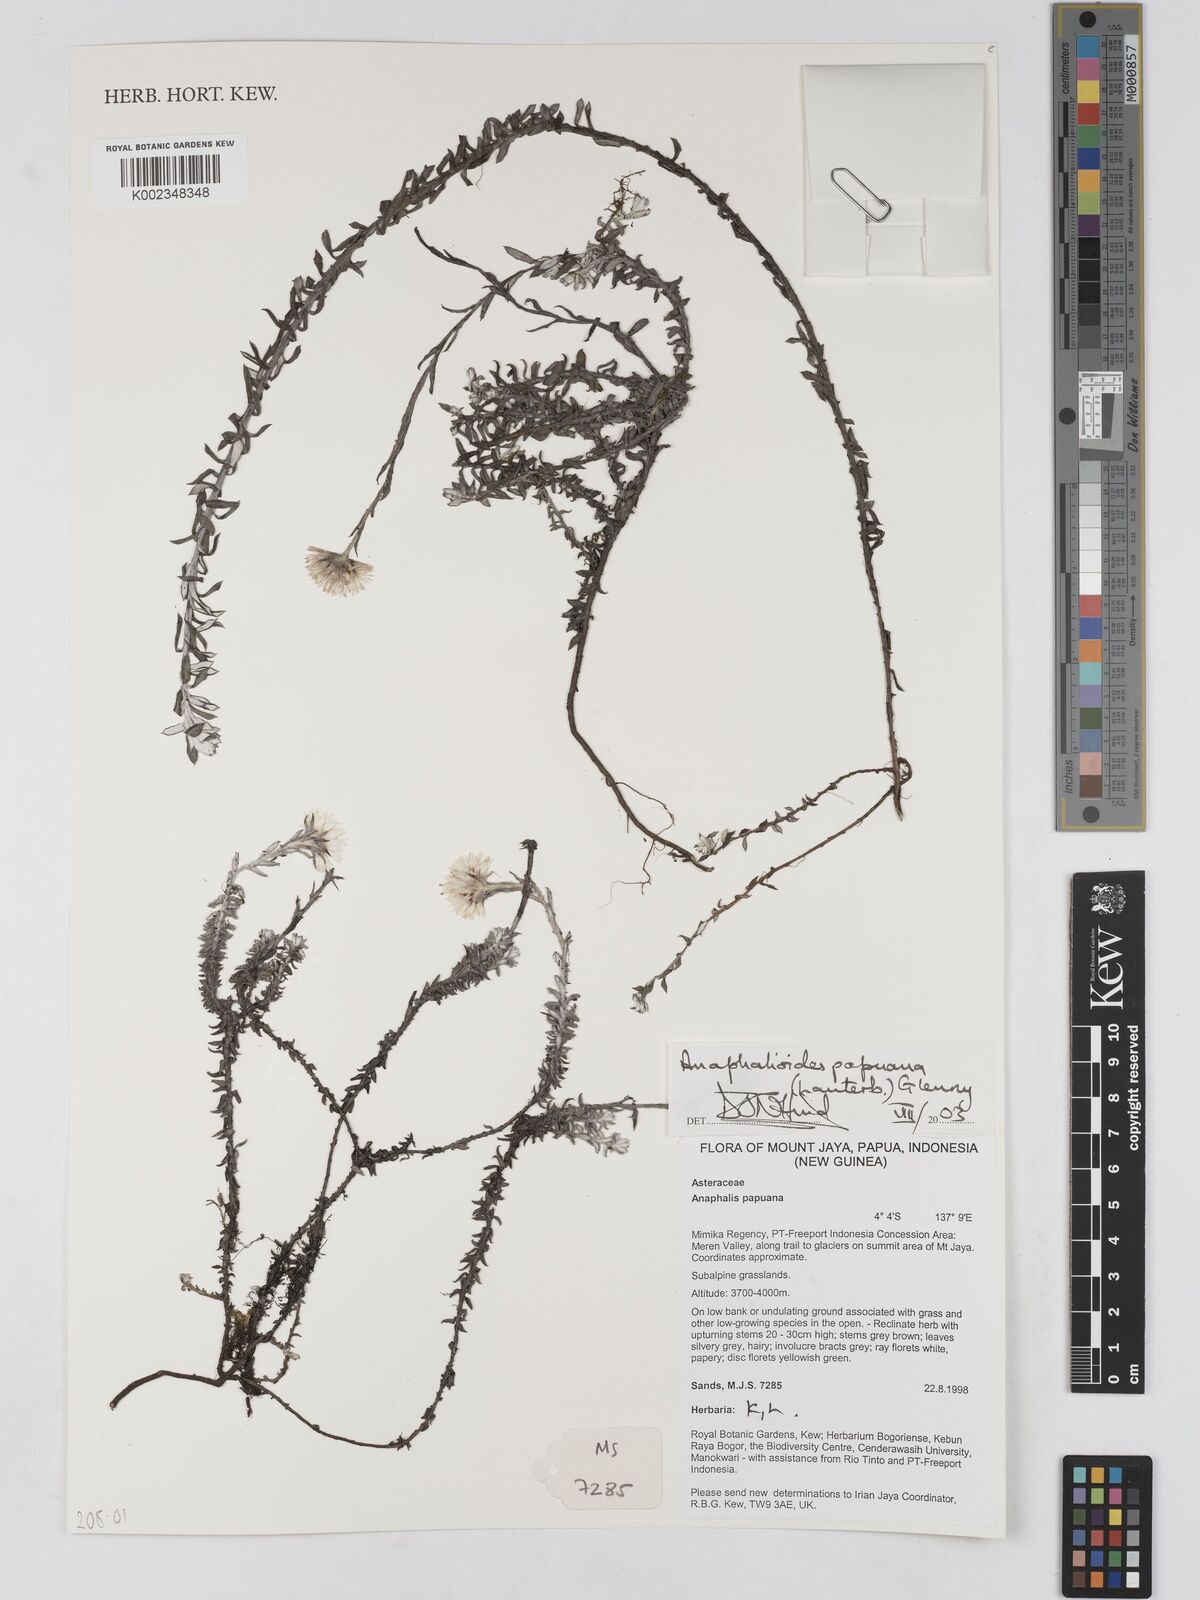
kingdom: Plantae
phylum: Tracheophyta
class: Magnoliopsida
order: Asterales
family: Asteraceae
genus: Anaphalioides
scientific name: Anaphalioides papuana
